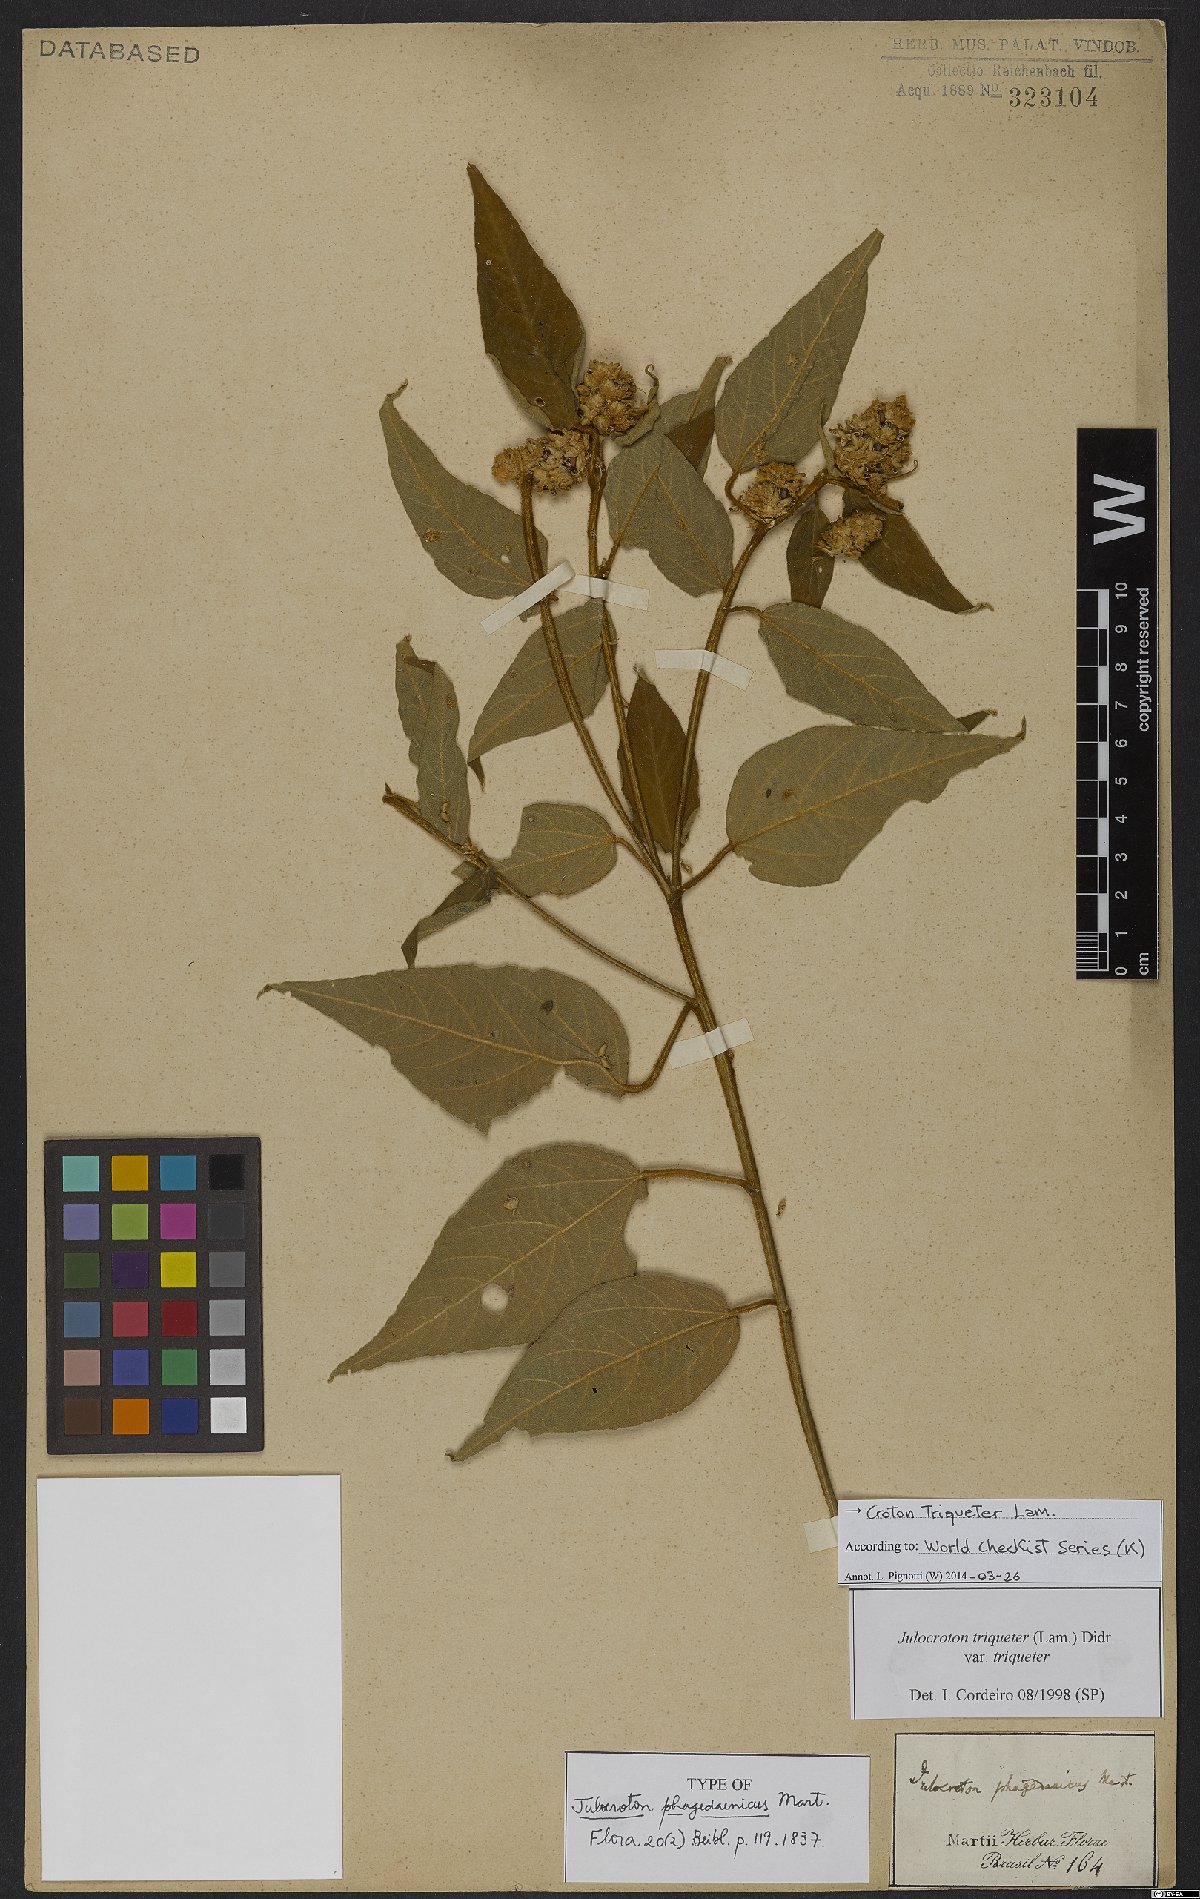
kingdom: Plantae
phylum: Tracheophyta
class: Magnoliopsida
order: Malpighiales
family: Euphorbiaceae
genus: Croton
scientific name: Croton triqueter
